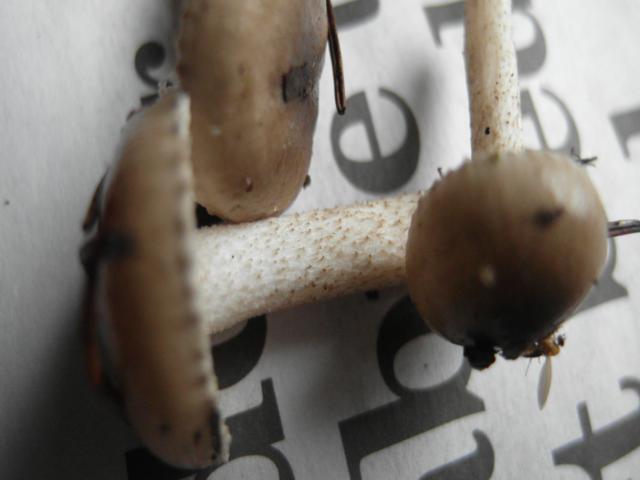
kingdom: Fungi
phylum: Basidiomycota
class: Agaricomycetes
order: Agaricales
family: Hygrophoraceae
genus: Hygrophorus
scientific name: Hygrophorus pustulatus
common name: mørkprikket sneglehat
